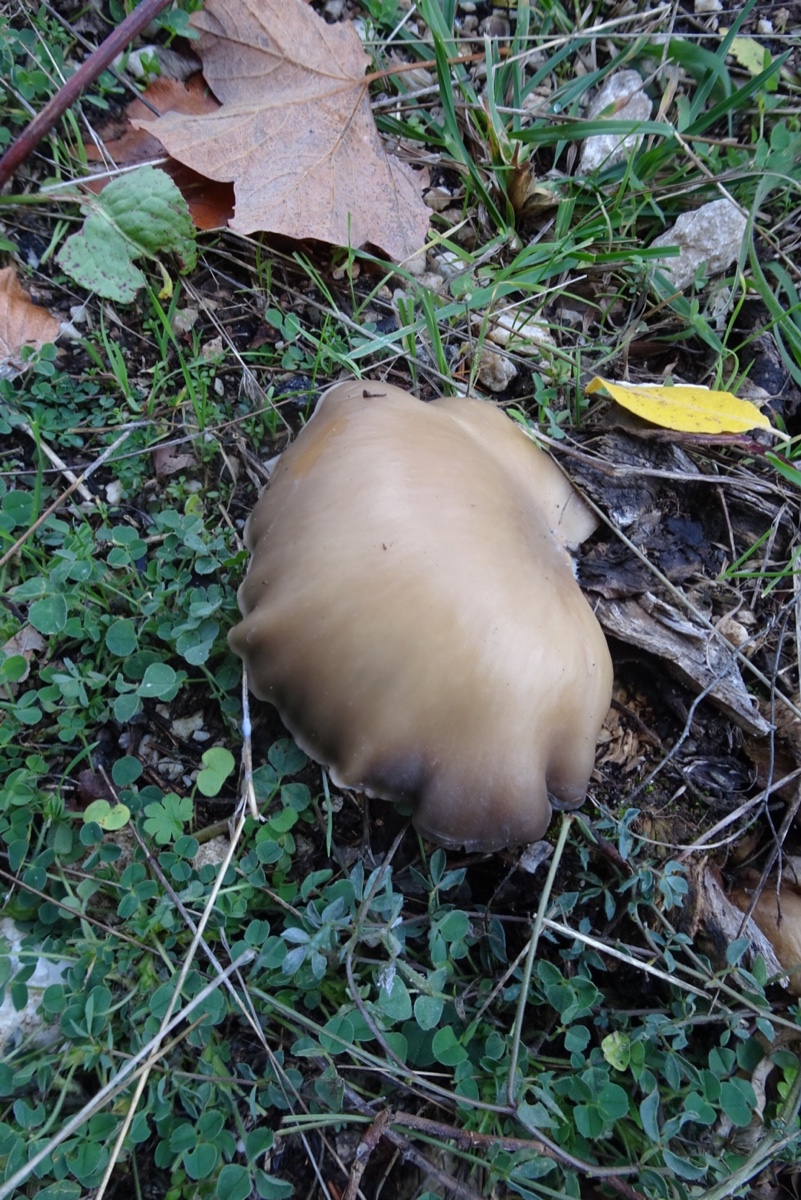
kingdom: Fungi
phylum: Basidiomycota
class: Agaricomycetes
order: Agaricales
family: Pleurotaceae
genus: Pleurotus
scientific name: Pleurotus ostreatus
